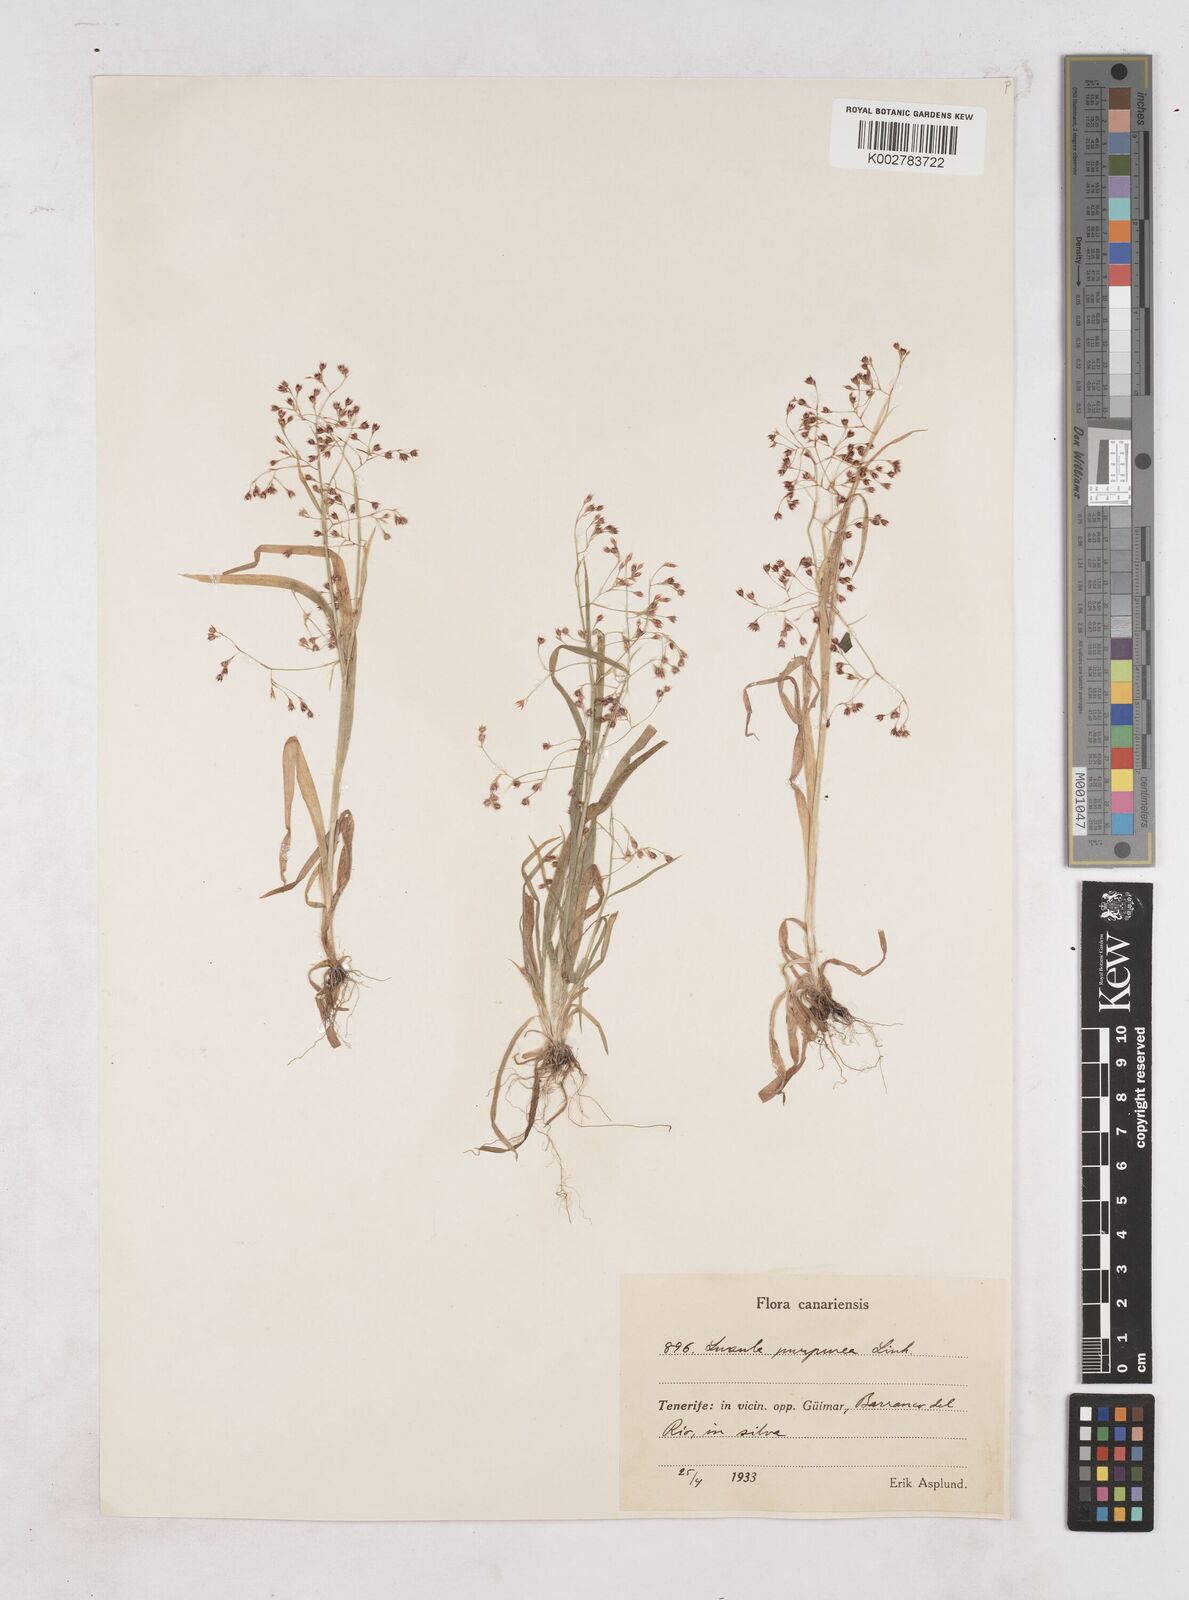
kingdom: Plantae
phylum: Tracheophyta
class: Liliopsida
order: Poales
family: Juncaceae
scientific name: Juncaceae
